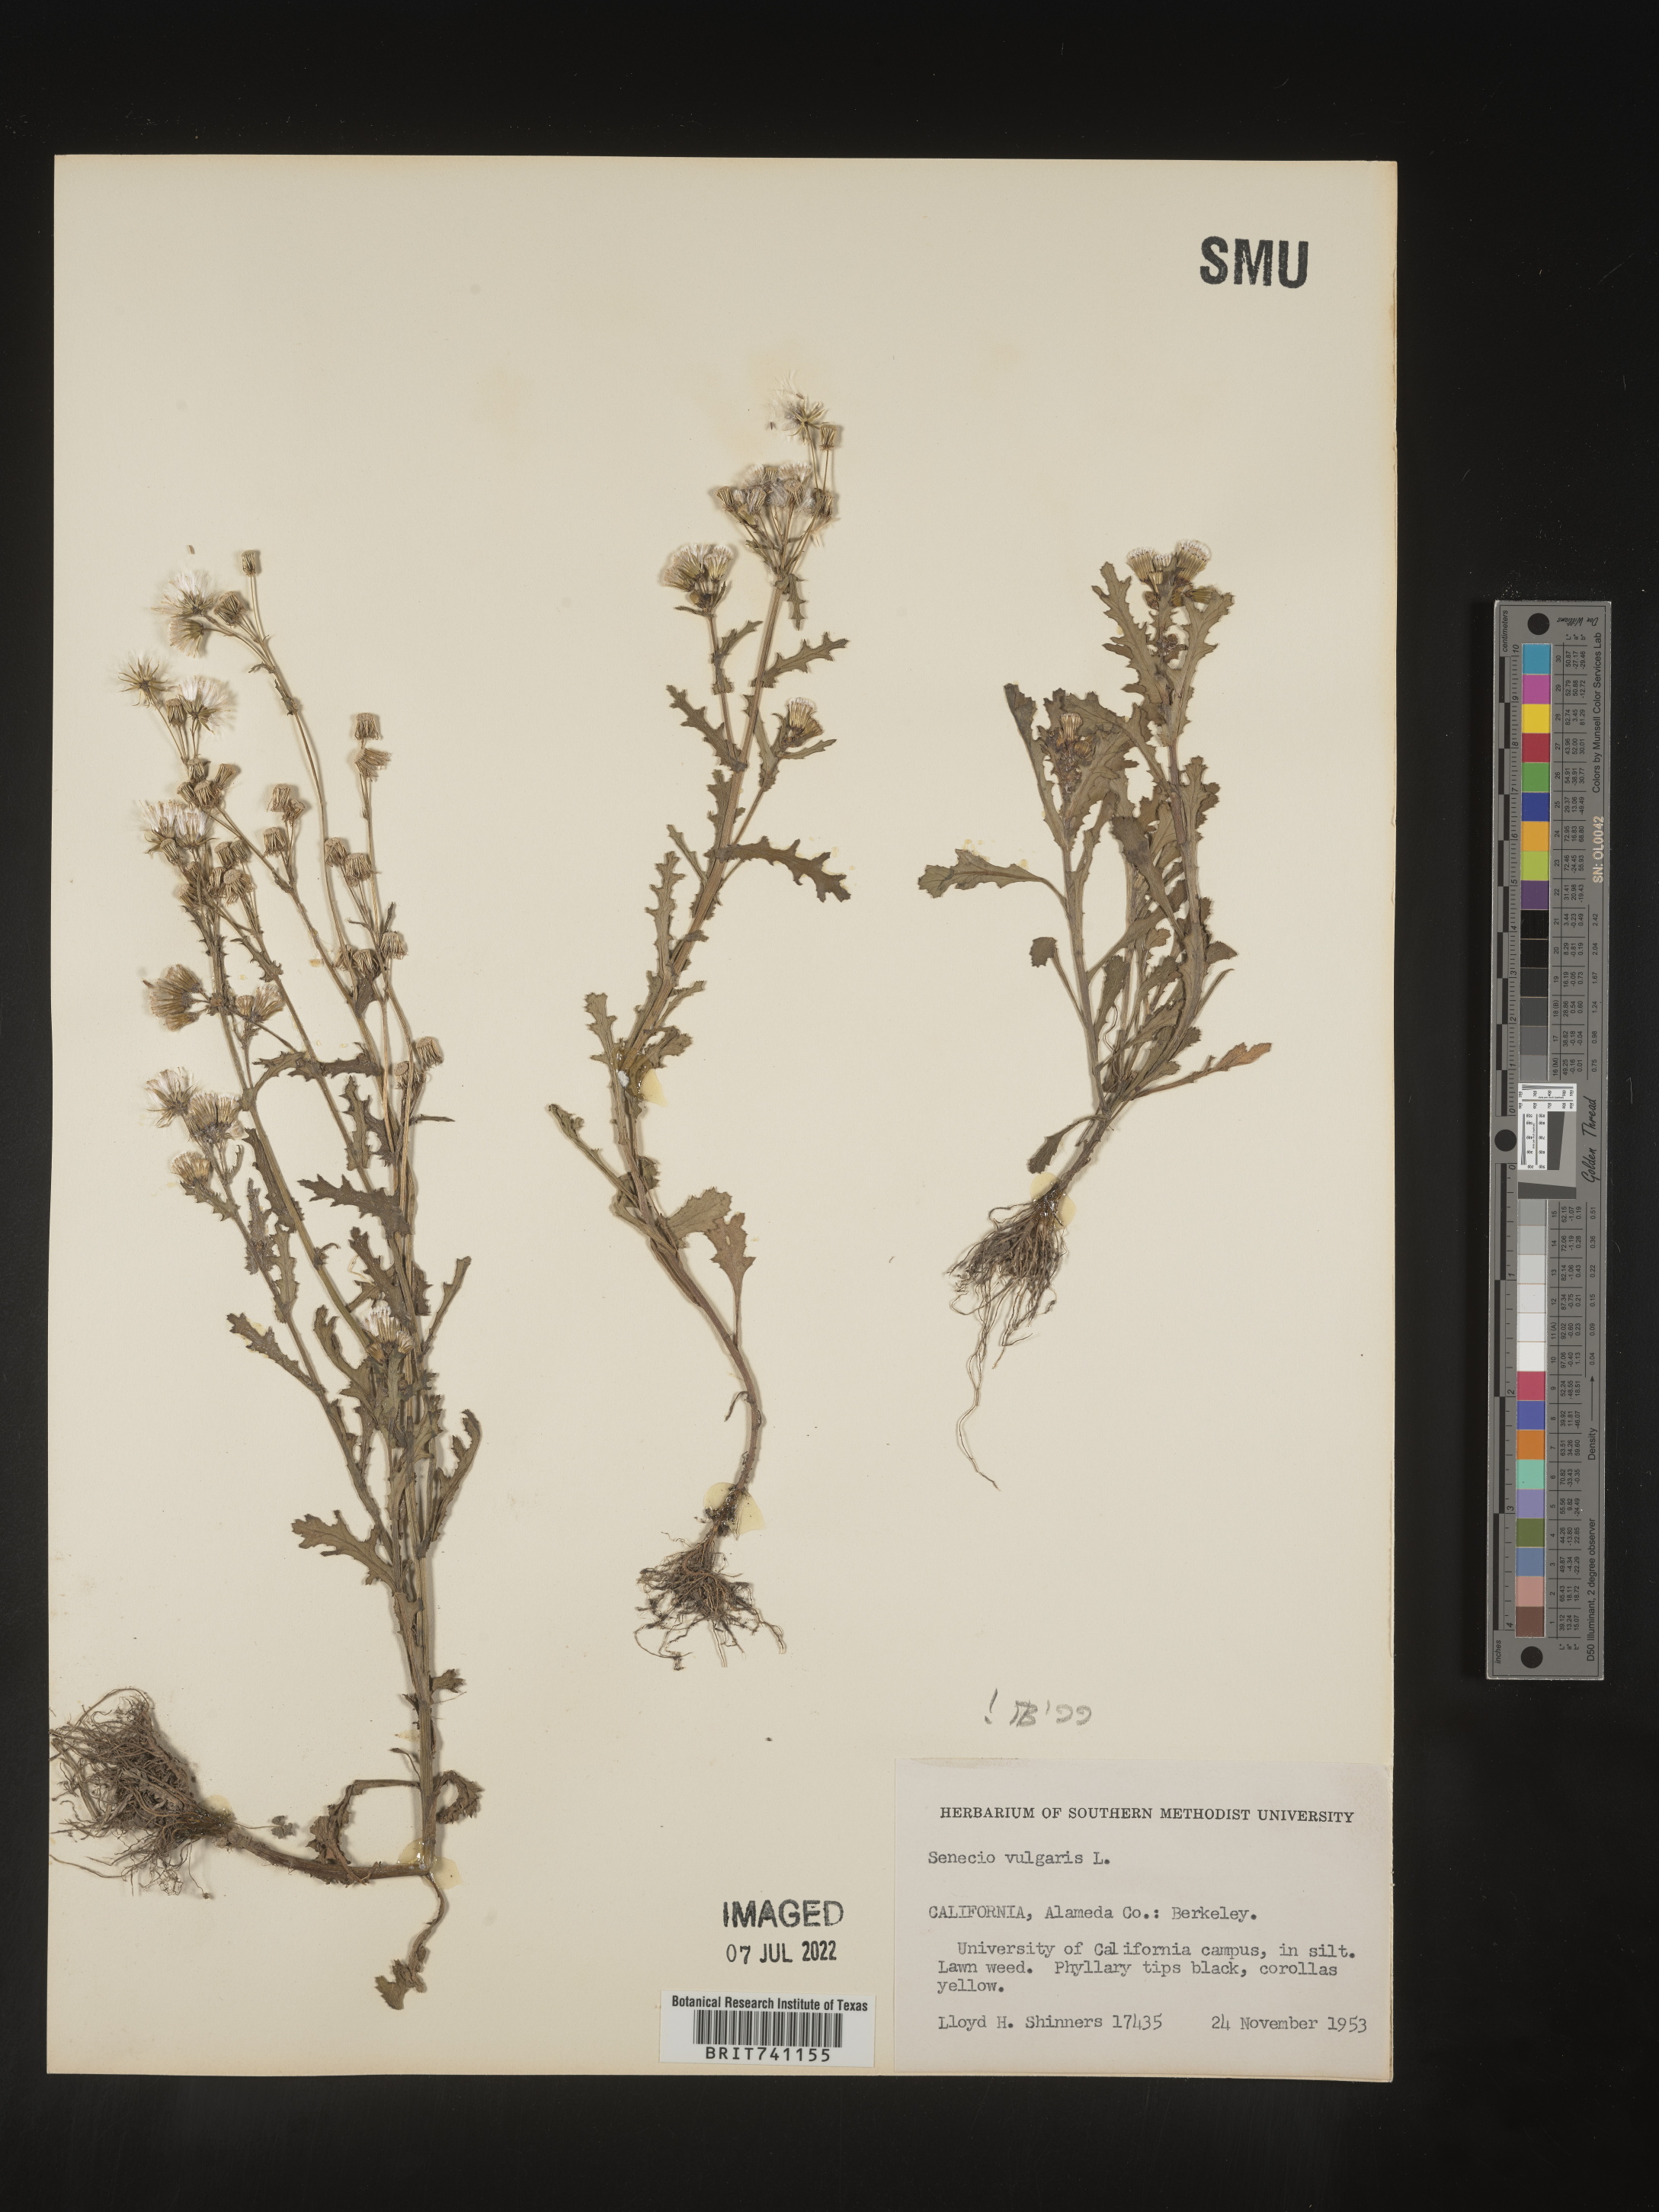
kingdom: Plantae
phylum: Tracheophyta
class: Magnoliopsida
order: Asterales
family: Asteraceae
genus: Senecio
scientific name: Senecio vulgaris
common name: Old-man-in-the-spring
